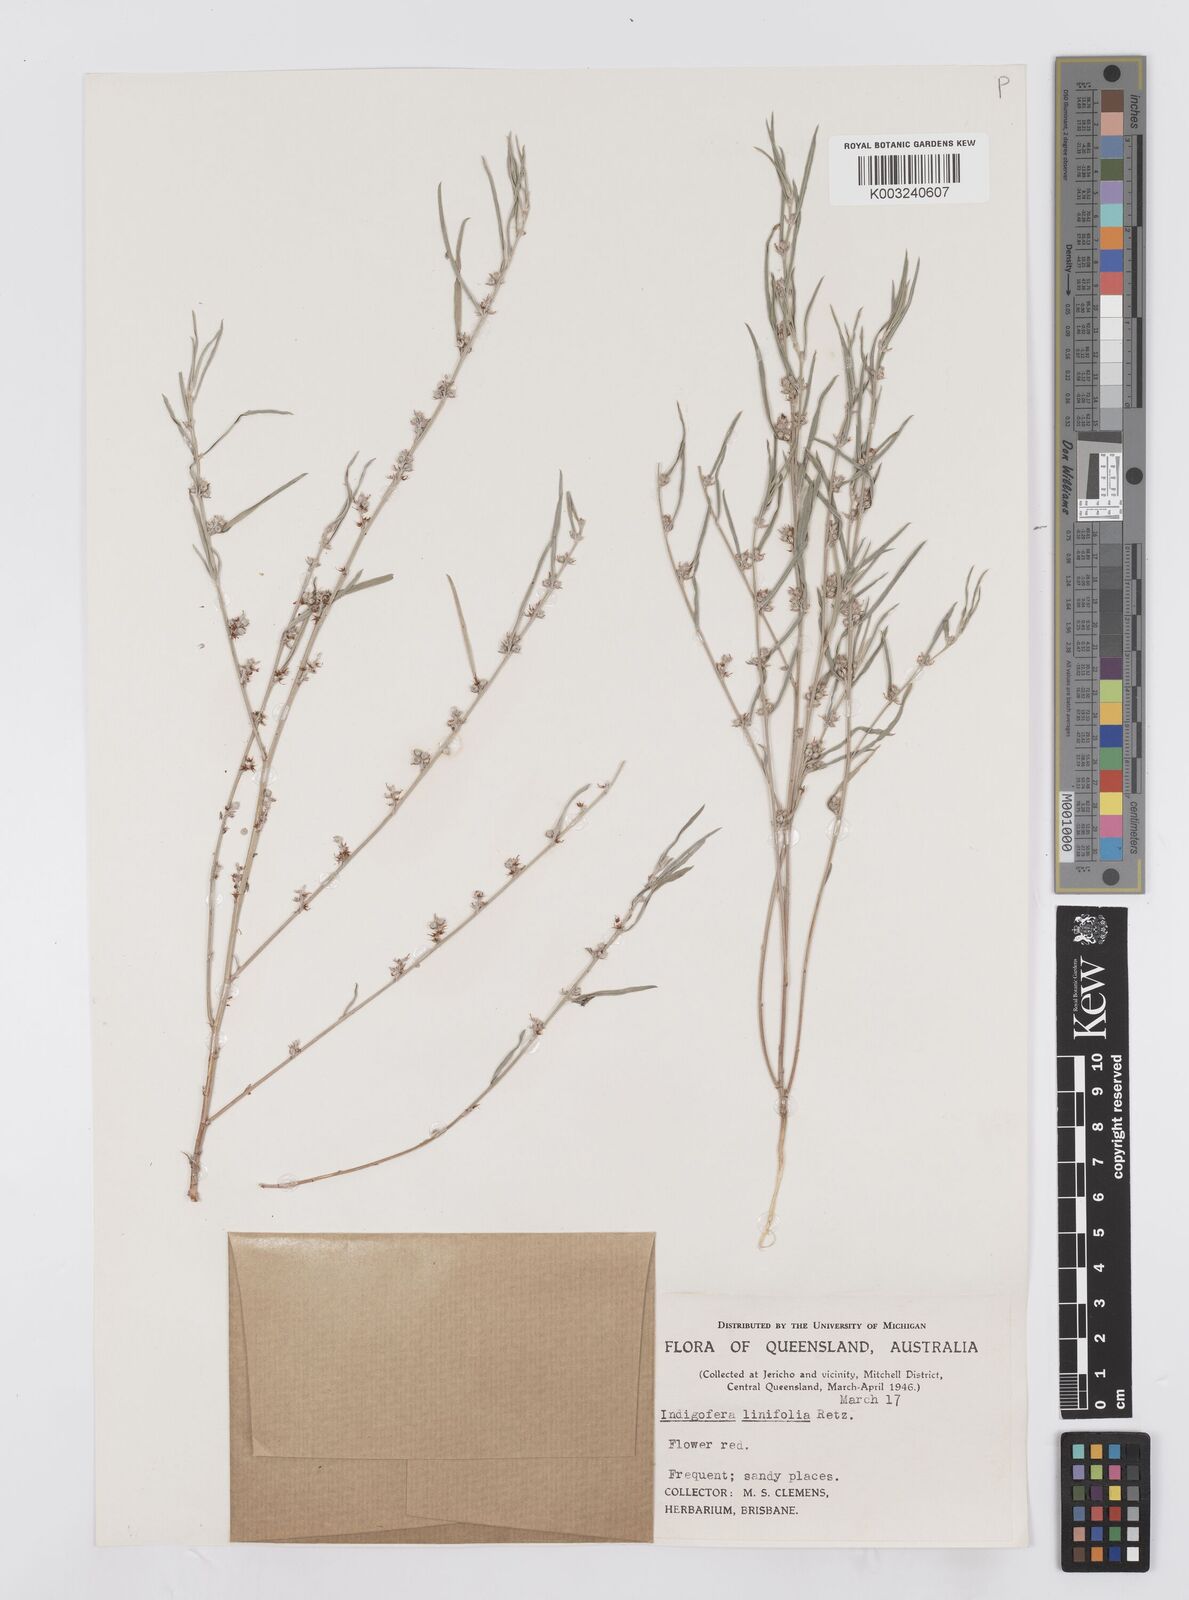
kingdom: Plantae
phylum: Tracheophyta
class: Magnoliopsida
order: Fabales
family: Fabaceae
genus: Indigofera
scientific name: Indigofera linifolia
